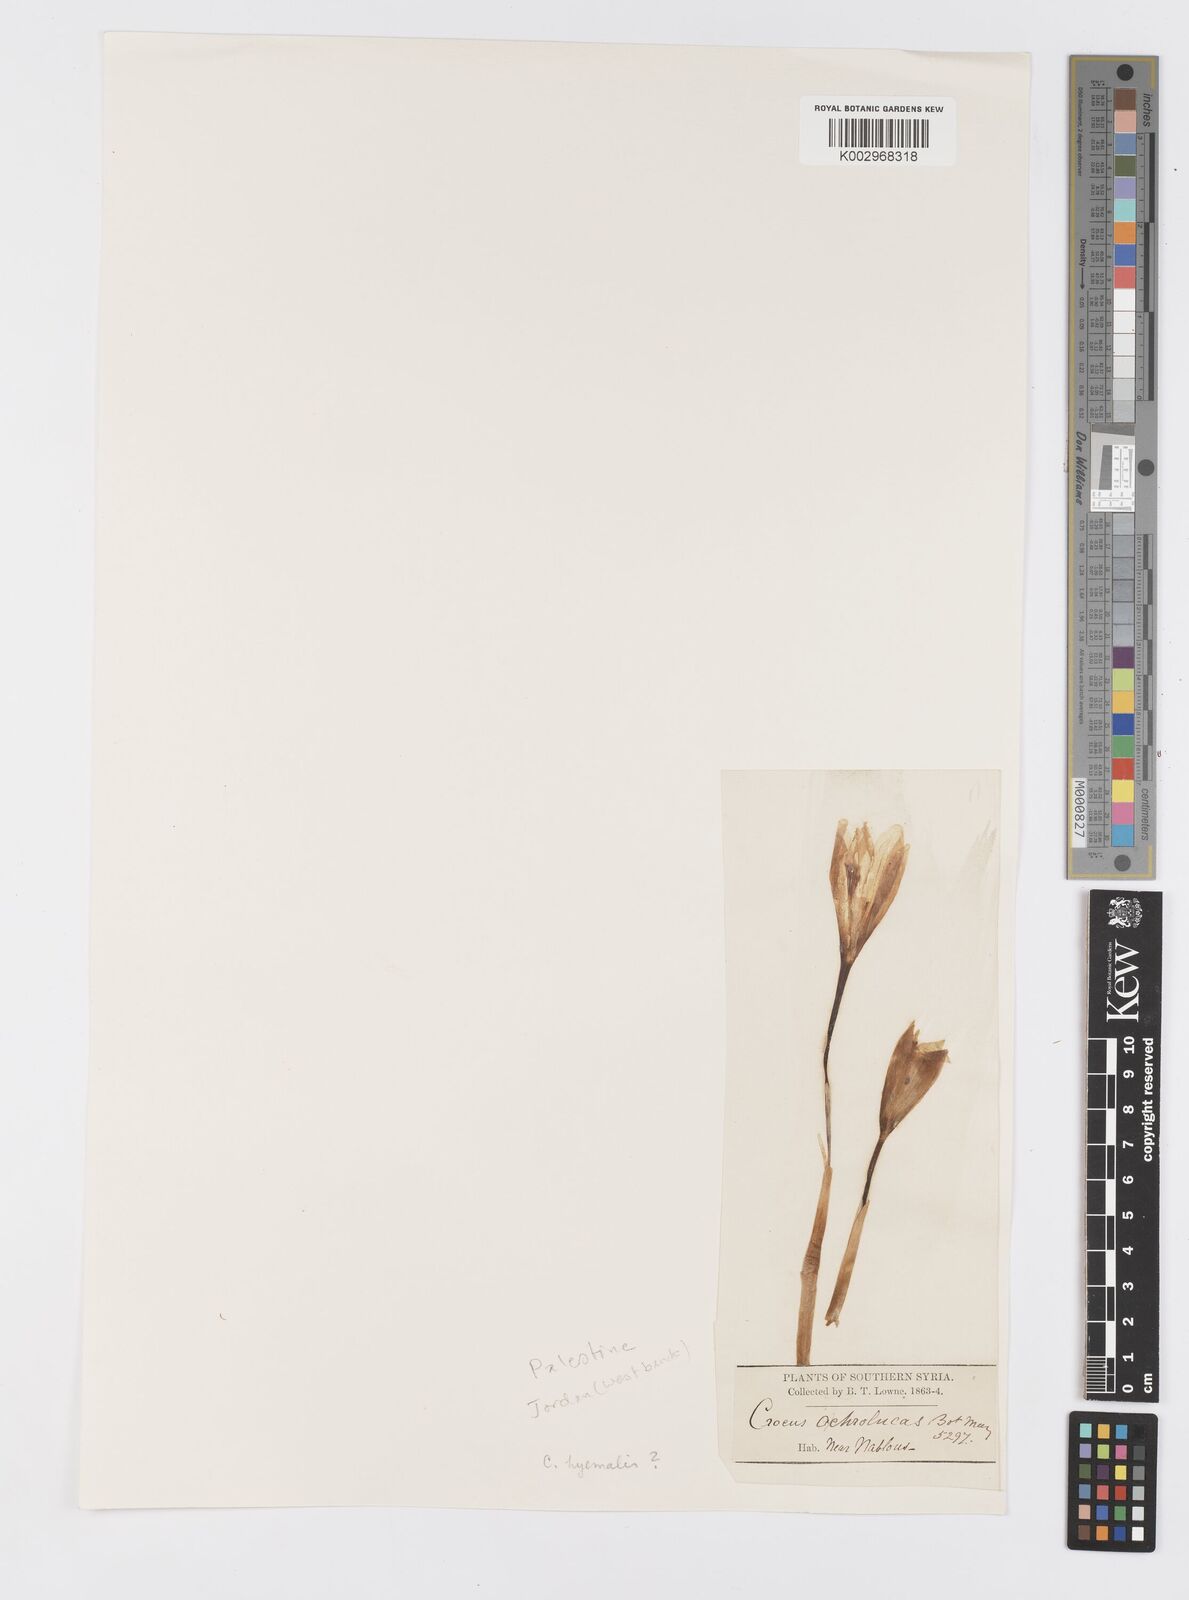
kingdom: Plantae
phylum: Tracheophyta
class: Liliopsida
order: Asparagales
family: Iridaceae
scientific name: Iridaceae
